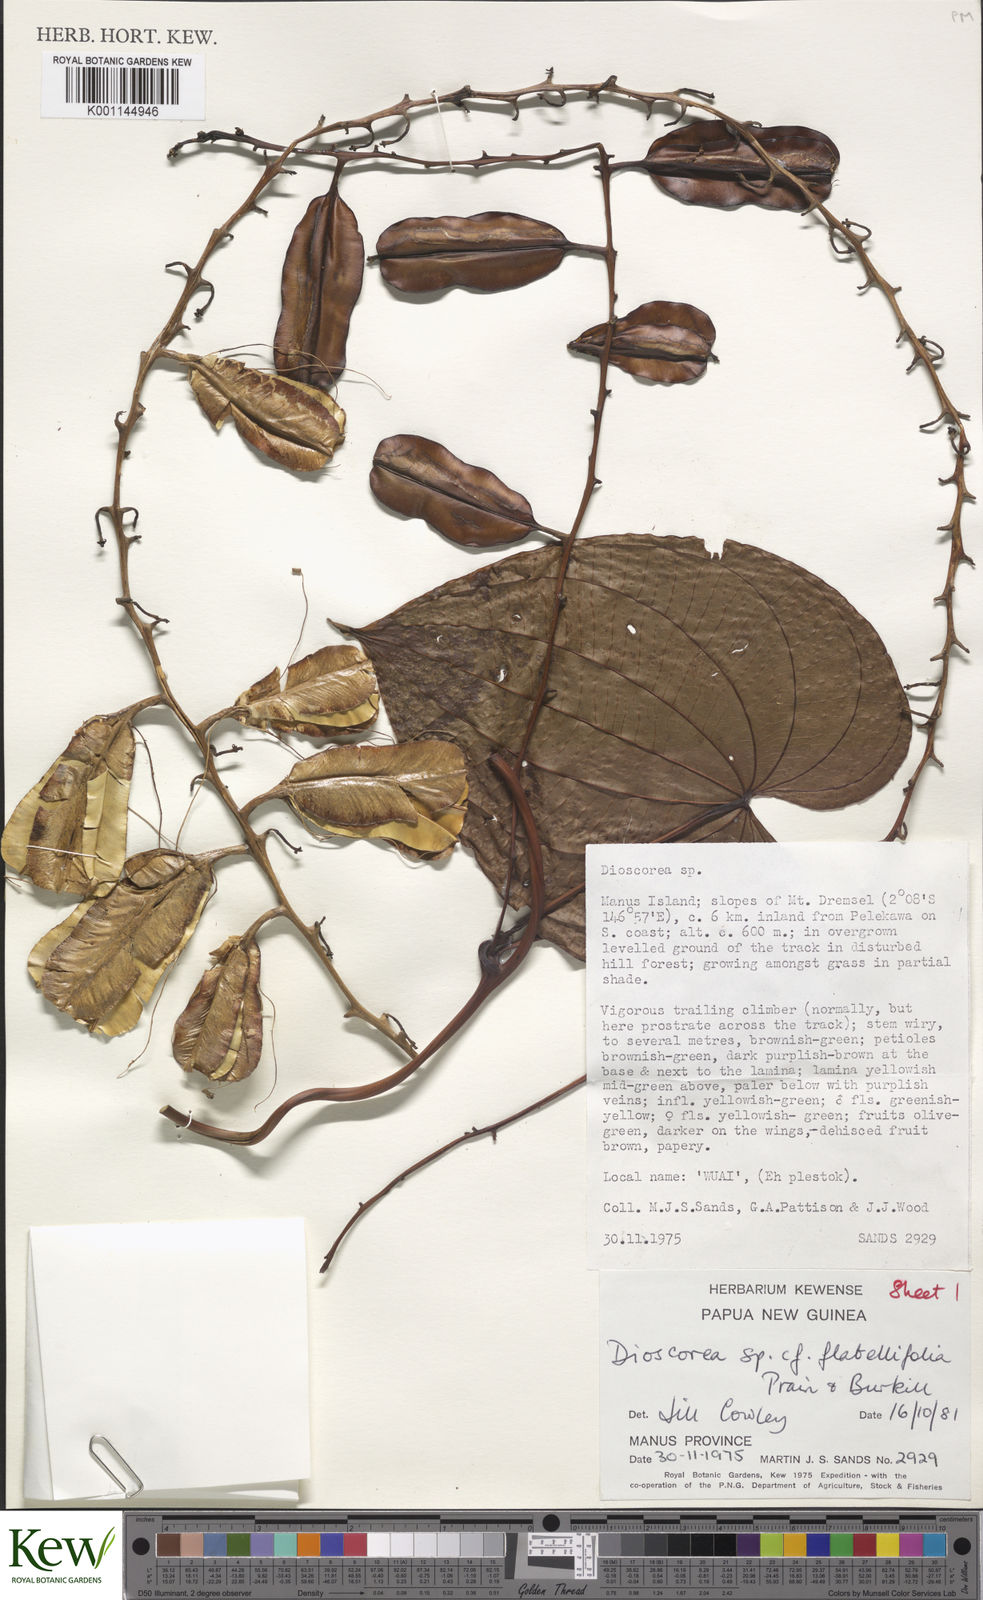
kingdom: Plantae
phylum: Tracheophyta
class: Liliopsida
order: Dioscoreales
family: Dioscoreaceae
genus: Dioscorea
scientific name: Dioscorea flabellifolia
